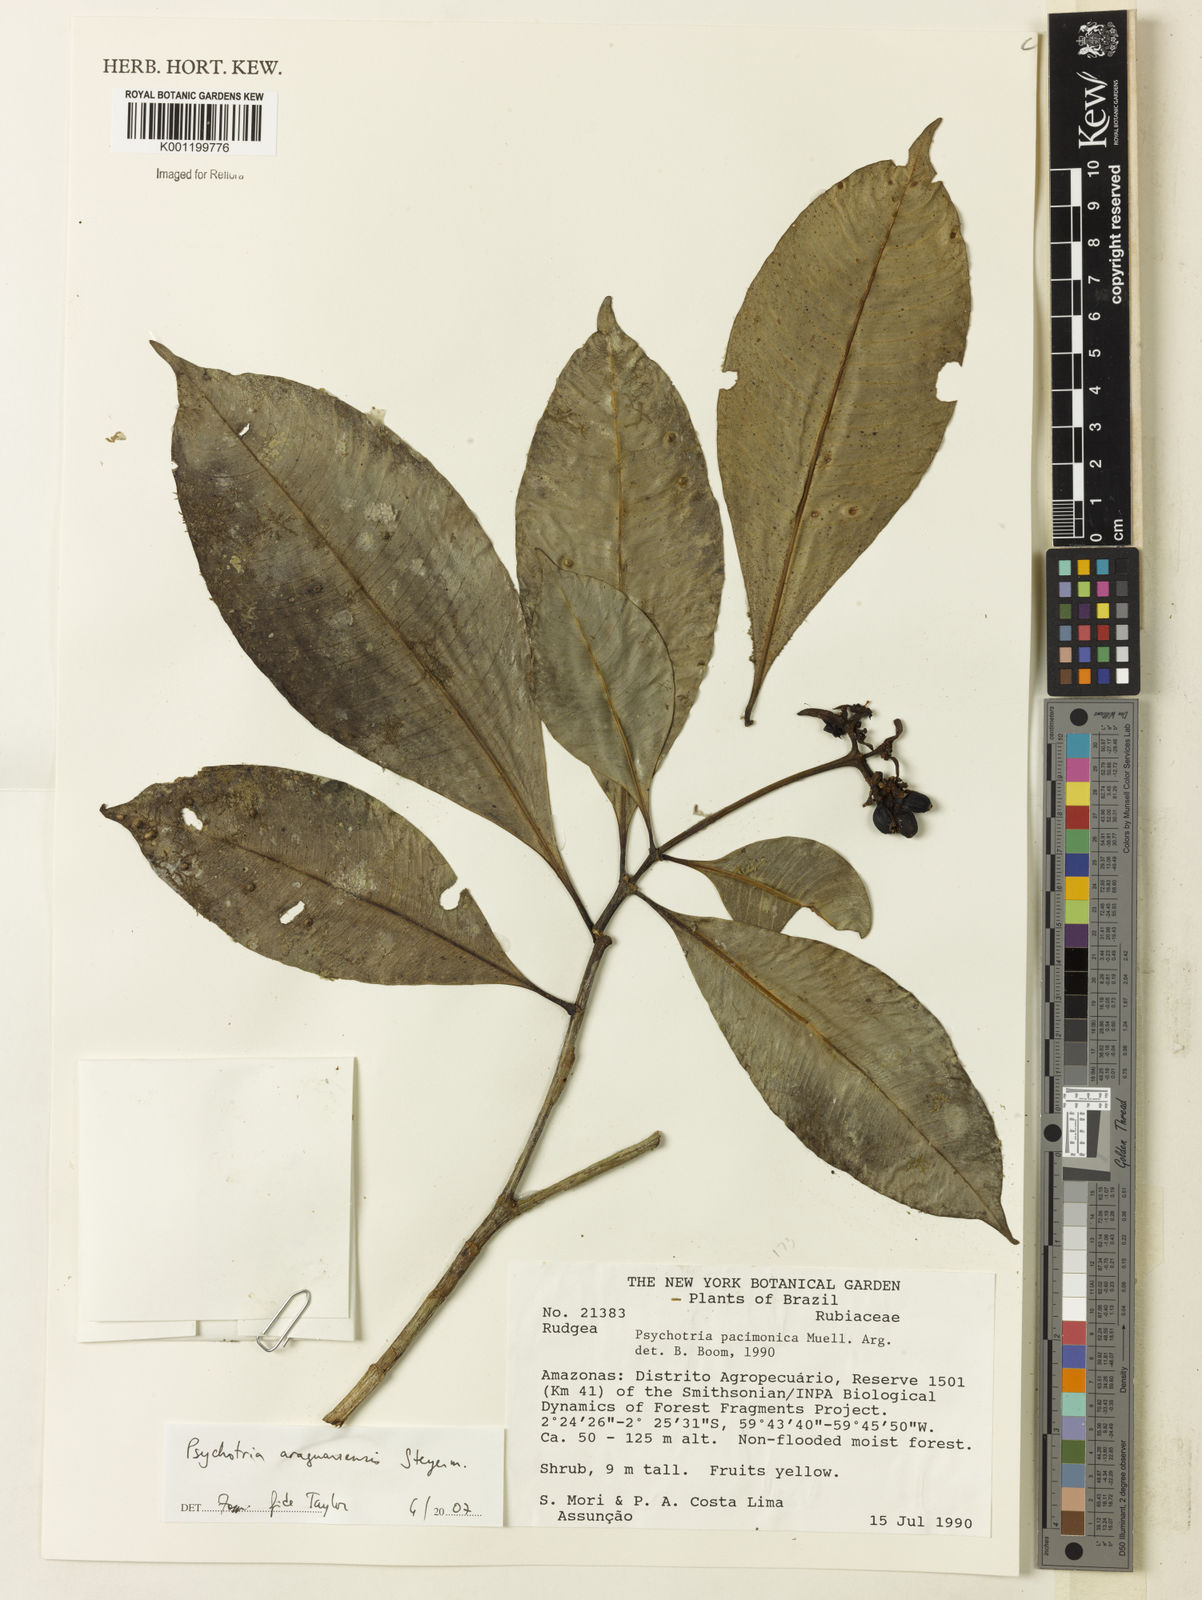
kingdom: Plantae
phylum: Tracheophyta
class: Magnoliopsida
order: Gentianales
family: Rubiaceae
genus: Carapichea
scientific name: Carapichea araguariensis
